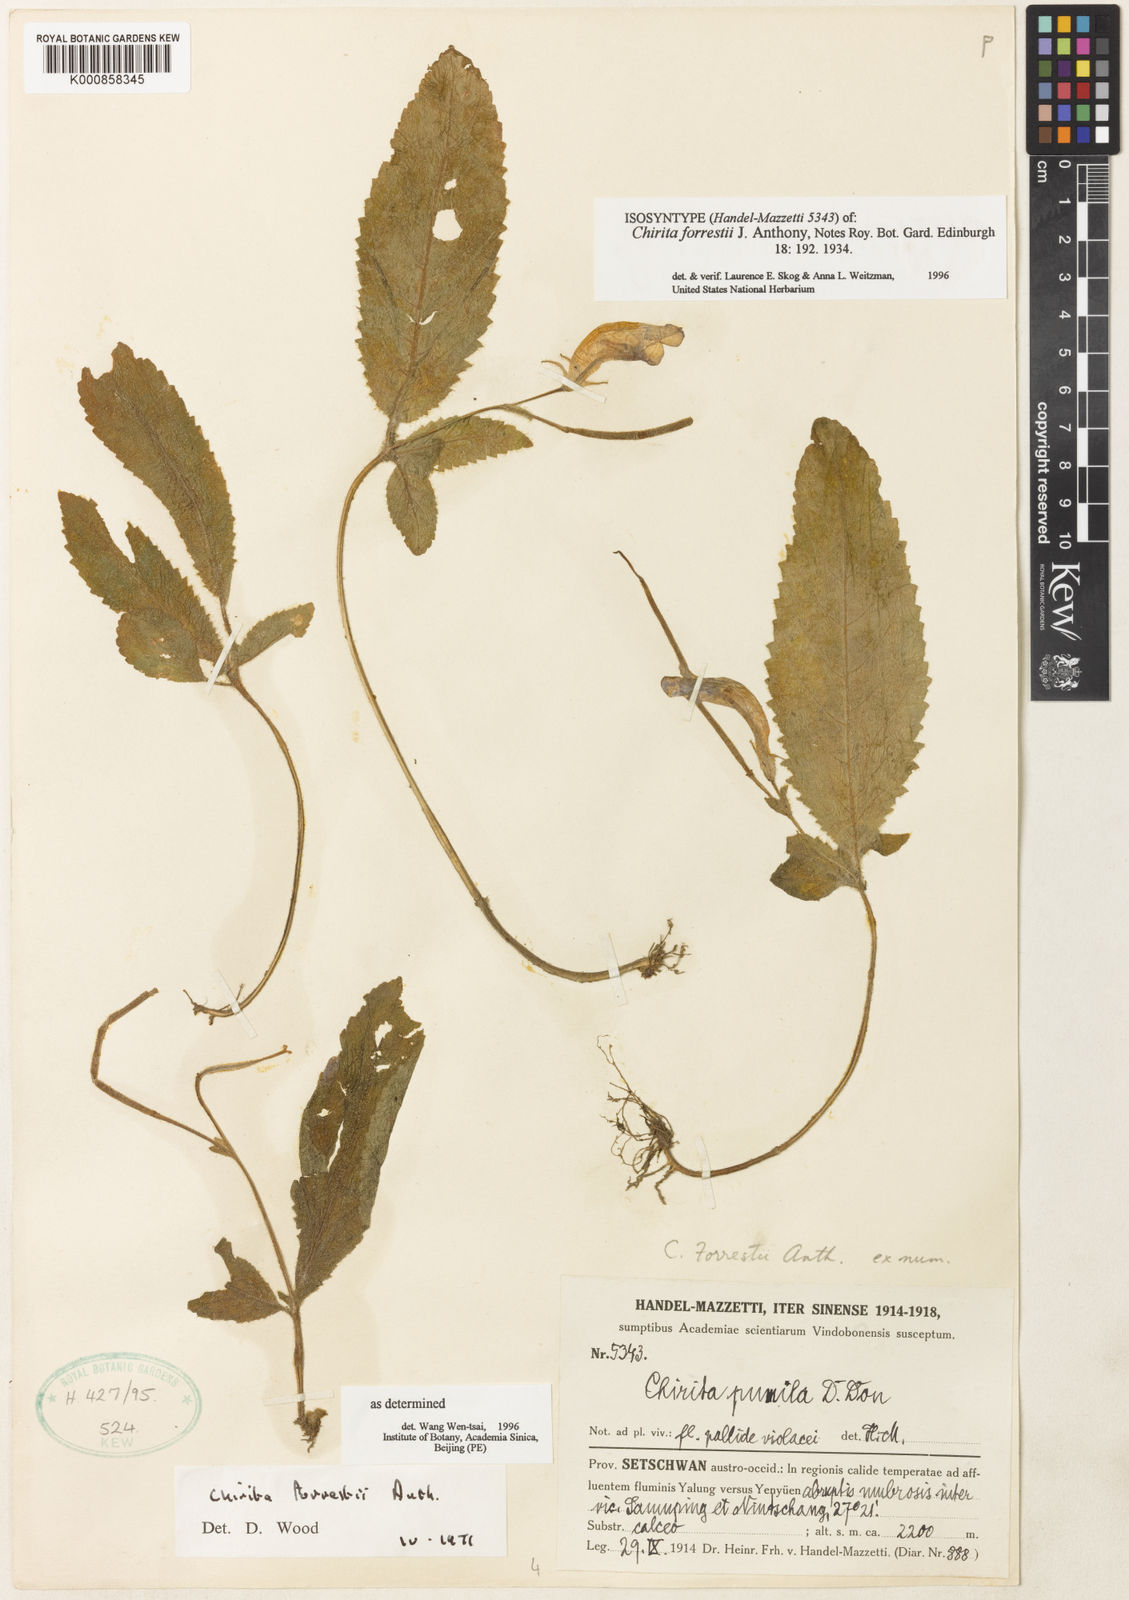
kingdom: Plantae
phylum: Tracheophyta
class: Magnoliopsida
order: Lamiales
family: Gesneriaceae
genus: Henckelia
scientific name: Henckelia forrestii
